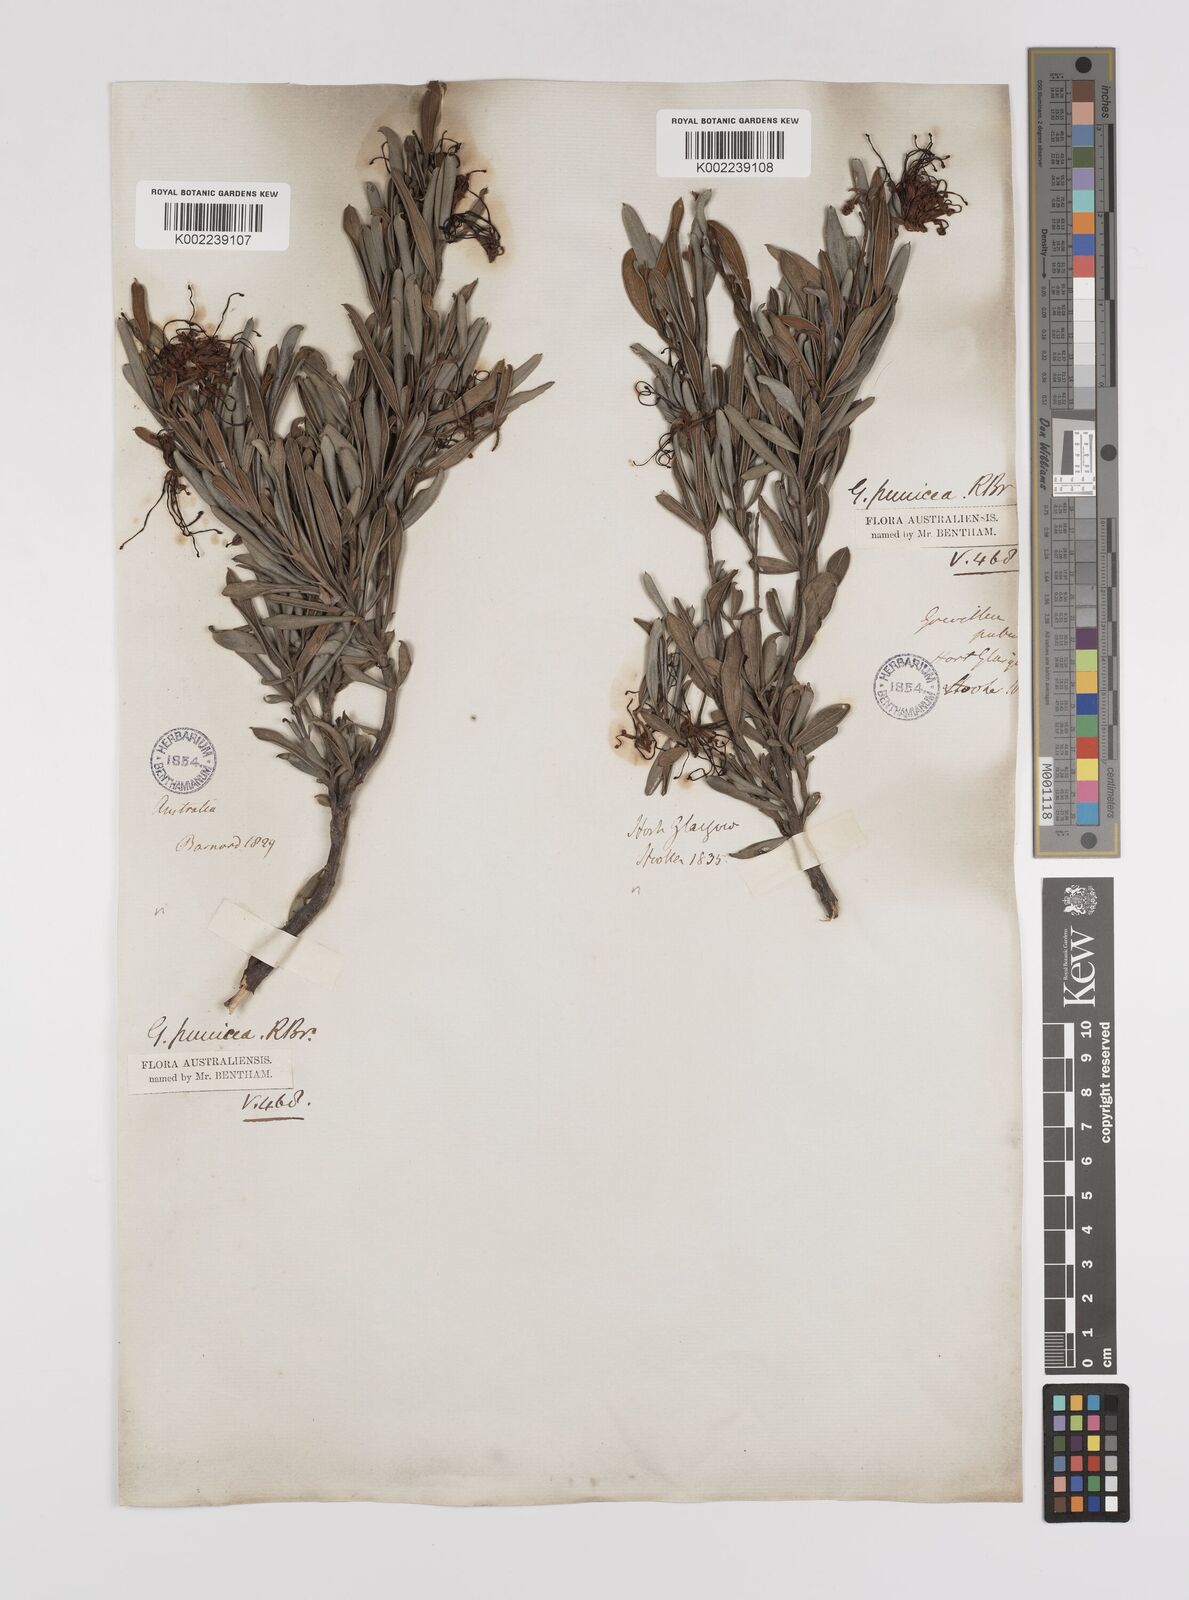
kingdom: Plantae
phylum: Tracheophyta
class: Magnoliopsida
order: Proteales
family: Proteaceae
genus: Grevillea
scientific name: Grevillea speciosa
